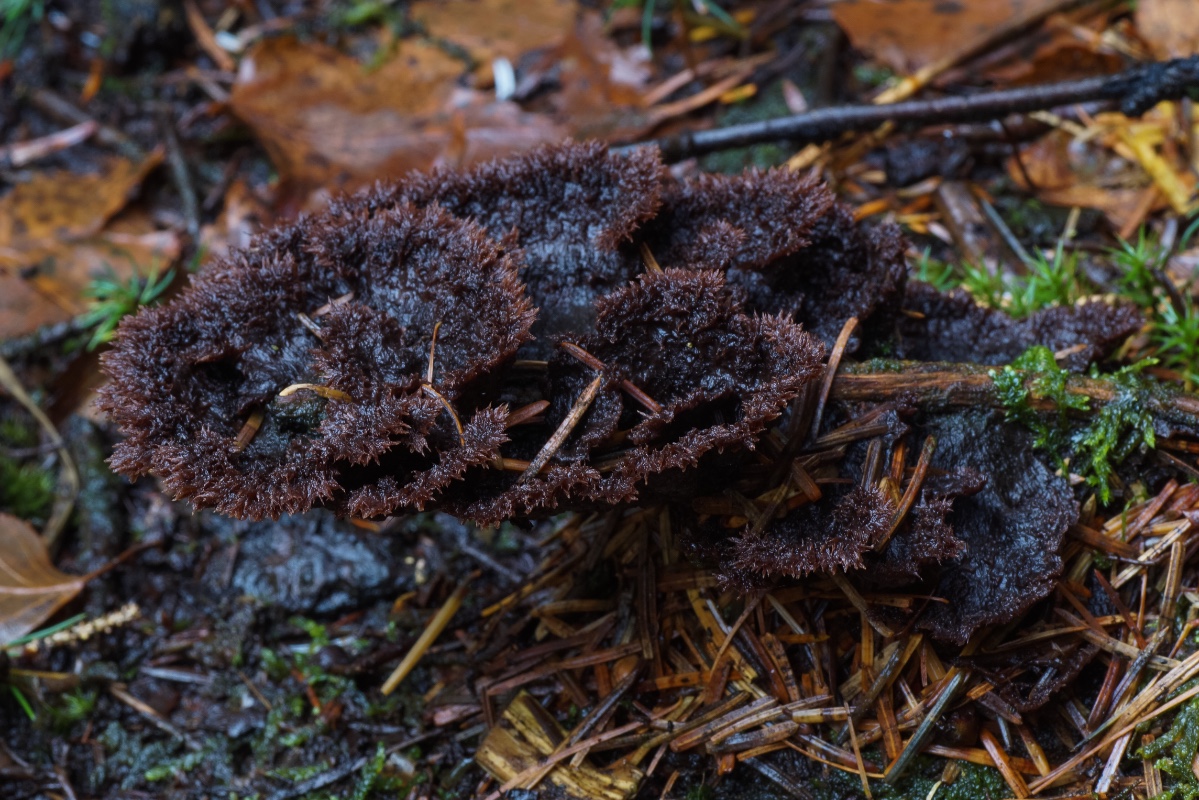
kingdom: Fungi
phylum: Basidiomycota
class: Agaricomycetes
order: Thelephorales
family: Thelephoraceae
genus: Thelephora
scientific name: Thelephora terrestris
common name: fliget frynsesvamp
